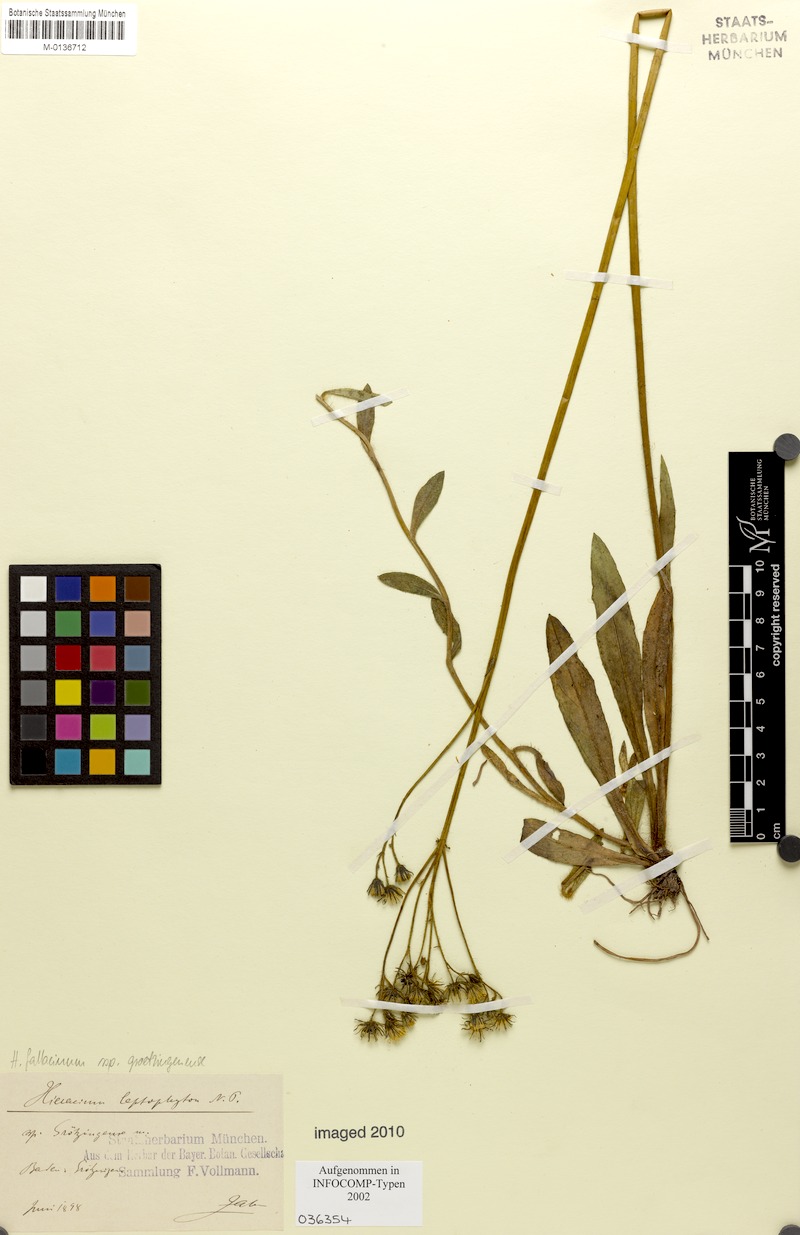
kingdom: Plantae
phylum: Tracheophyta
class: Magnoliopsida
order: Asterales
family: Asteraceae
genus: Pilosella
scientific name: Pilosella leptophyton
